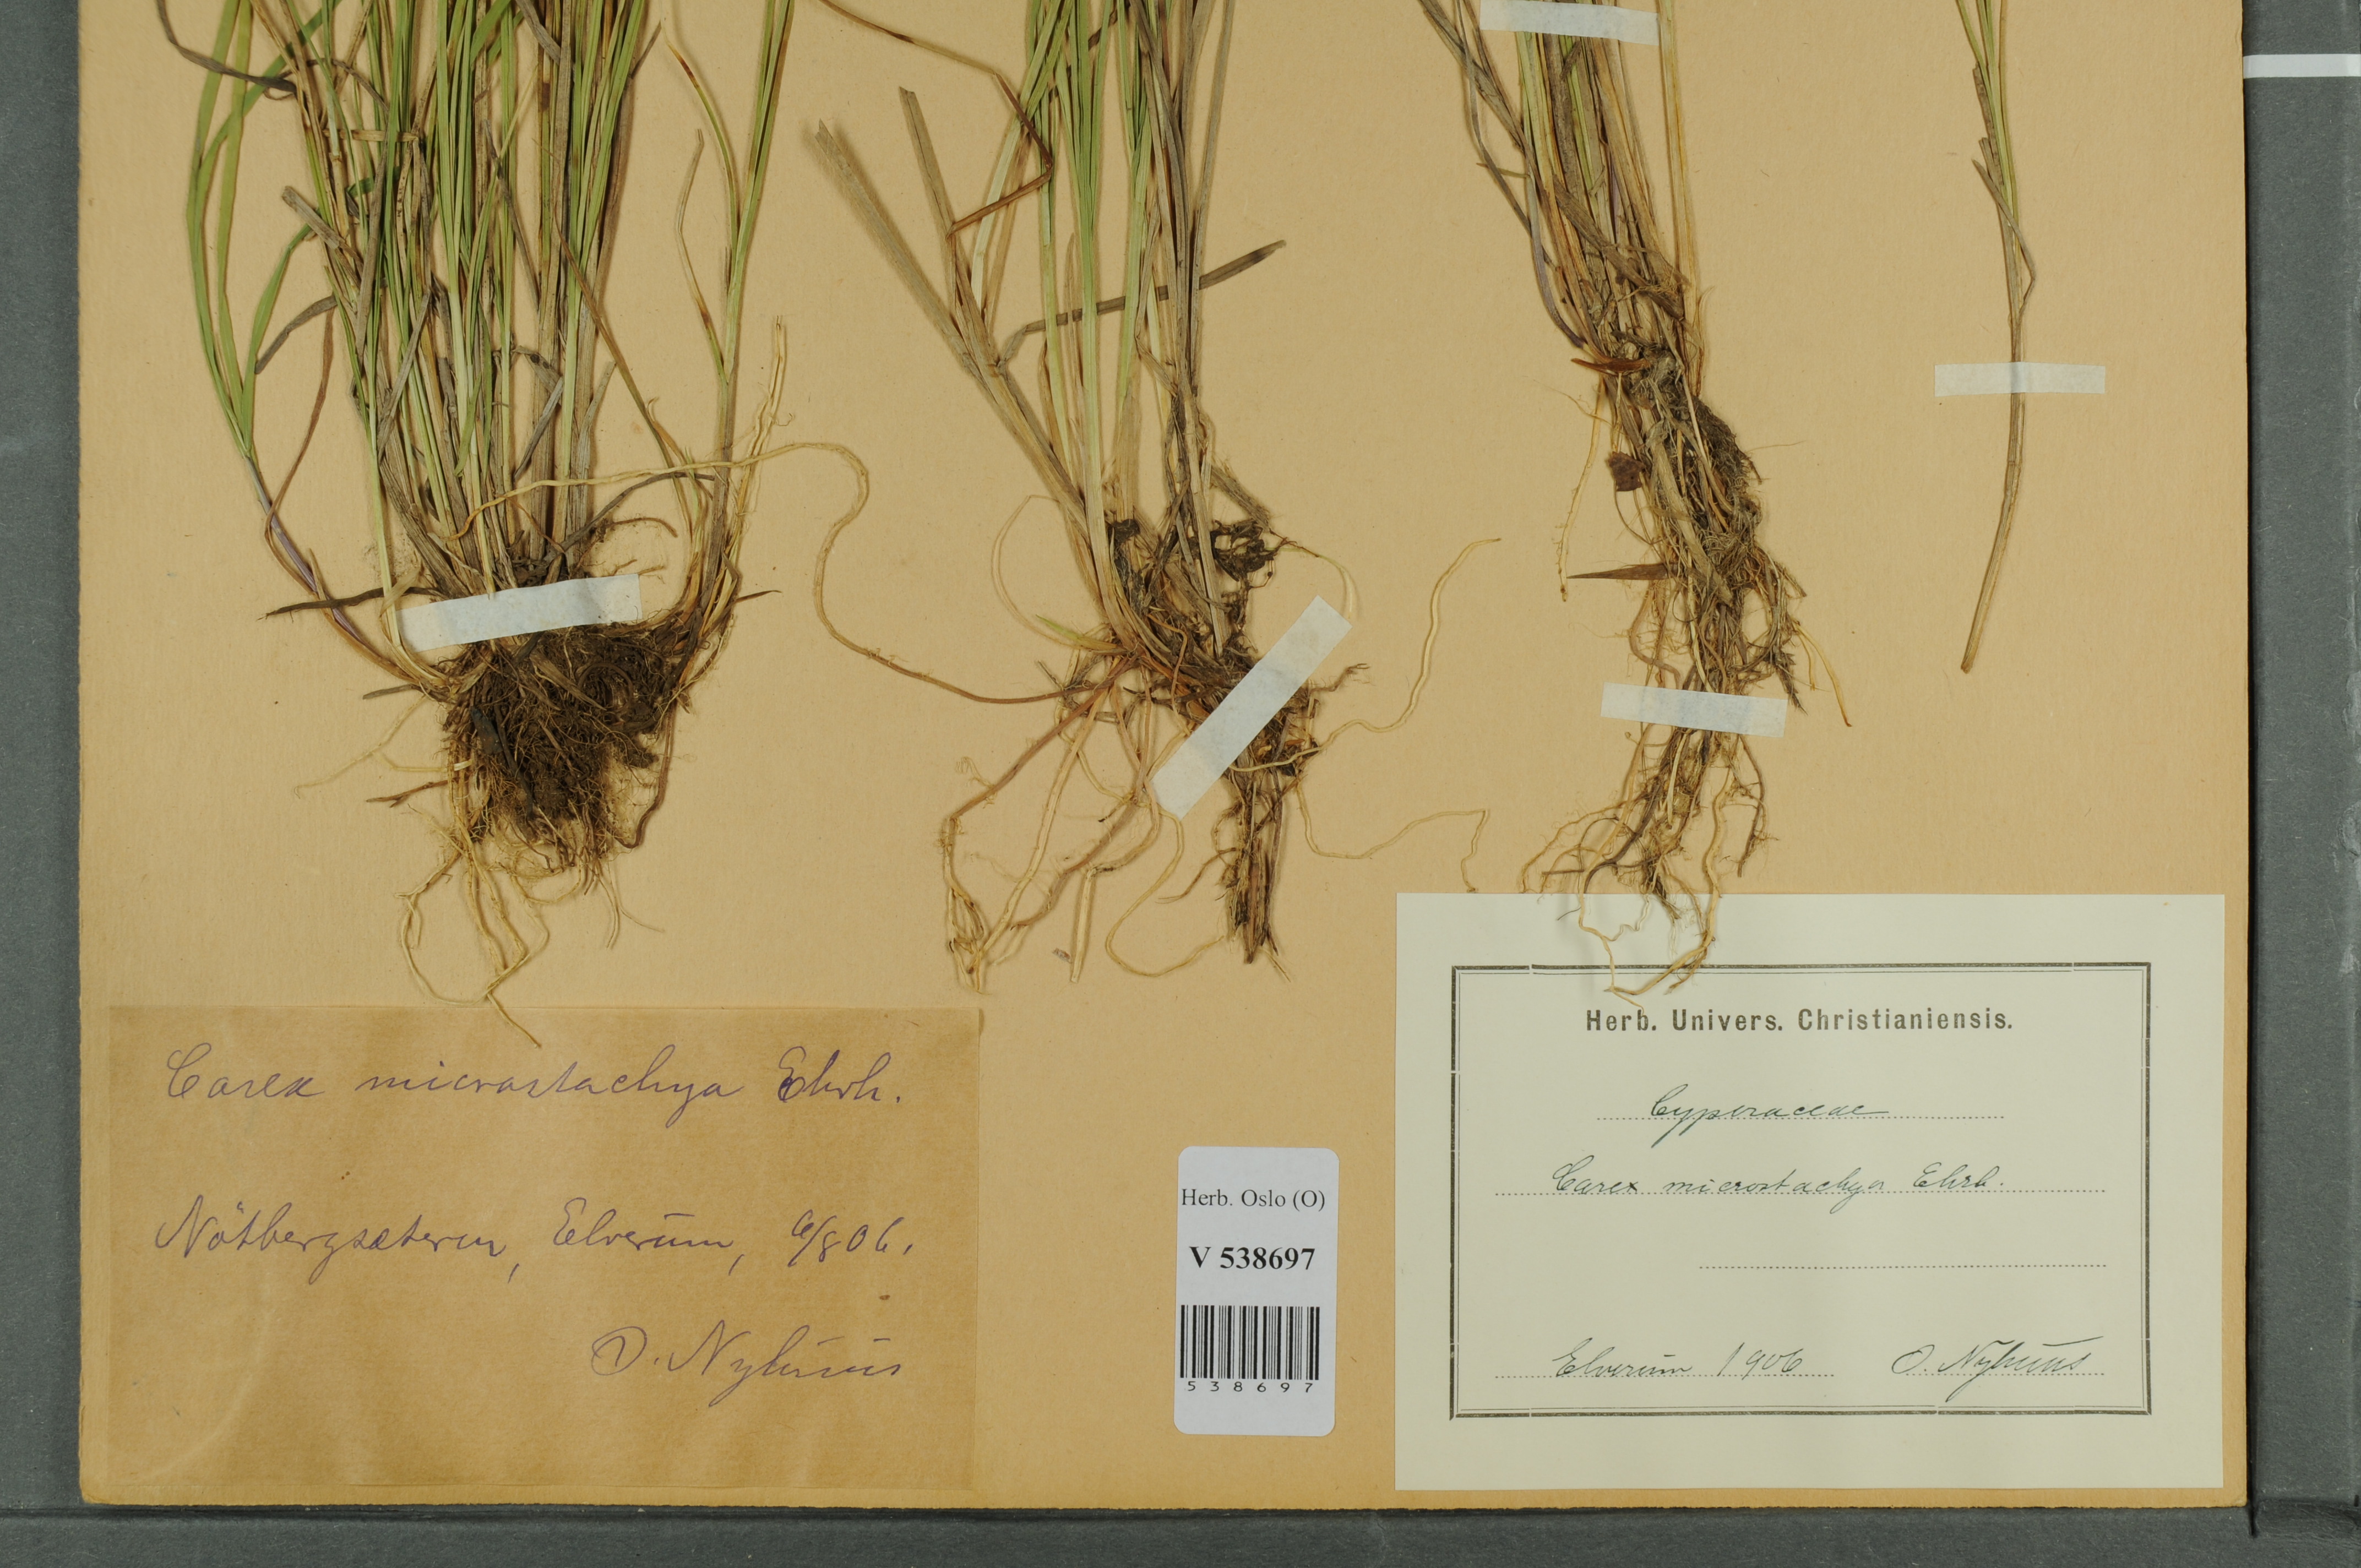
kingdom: Plantae
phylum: Tracheophyta
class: Liliopsida
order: Poales
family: Cyperaceae
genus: Carex
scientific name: Carex
